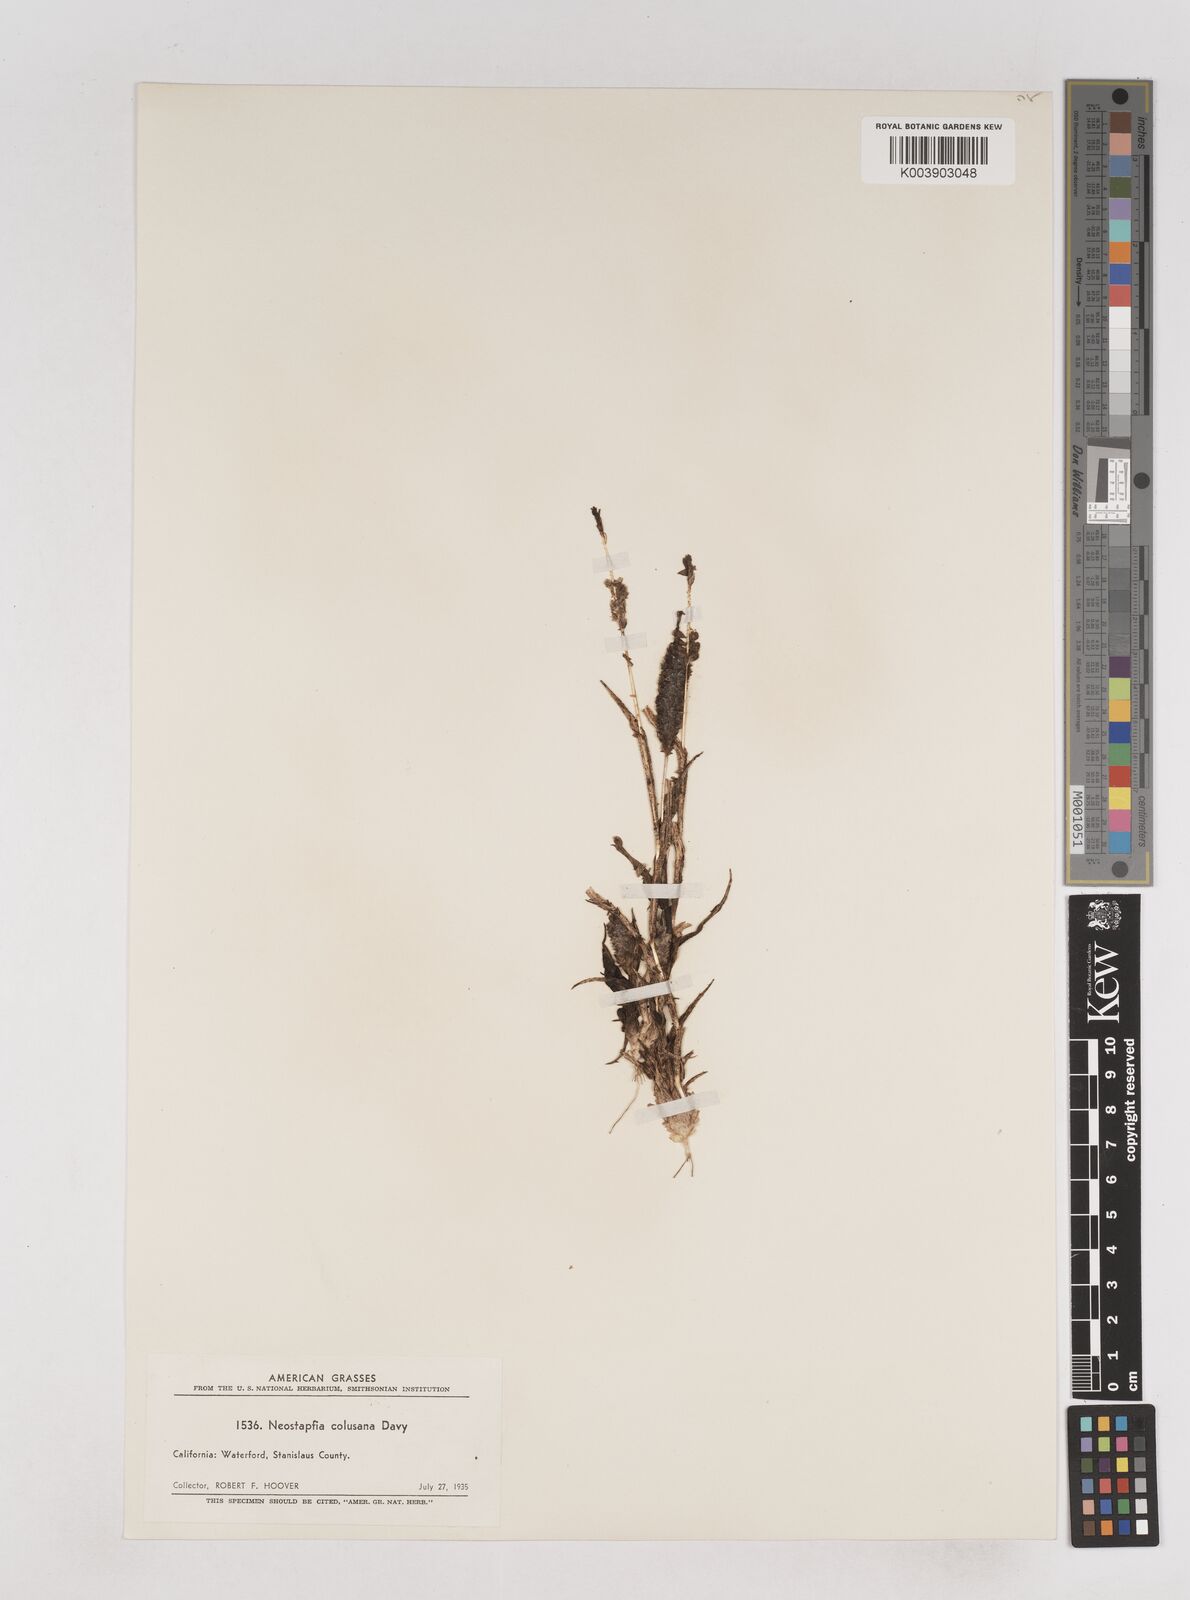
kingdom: Plantae
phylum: Tracheophyta
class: Liliopsida
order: Poales
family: Poaceae
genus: Neostapfia
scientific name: Neostapfia colusana
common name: Colusa grass
